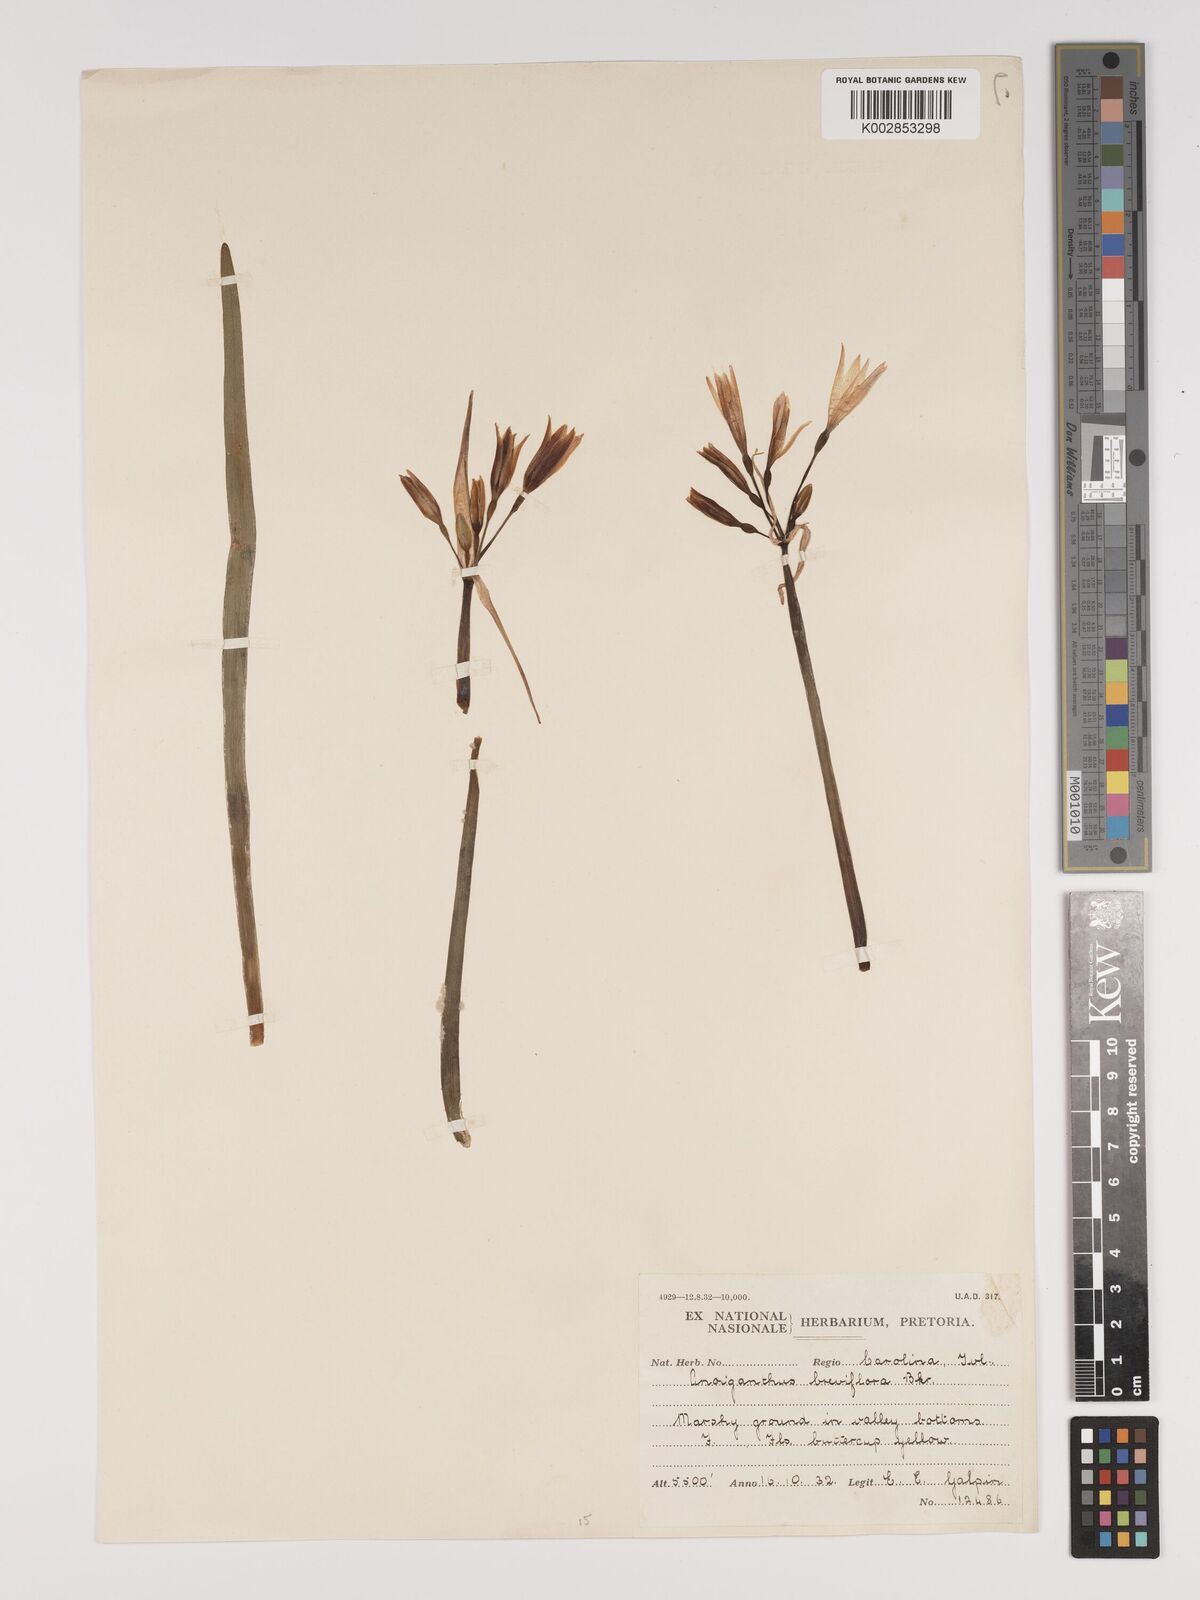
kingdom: Plantae
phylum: Tracheophyta
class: Liliopsida
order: Asparagales
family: Amaryllidaceae
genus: Cyrtanthus
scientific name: Cyrtanthus breviflorus
